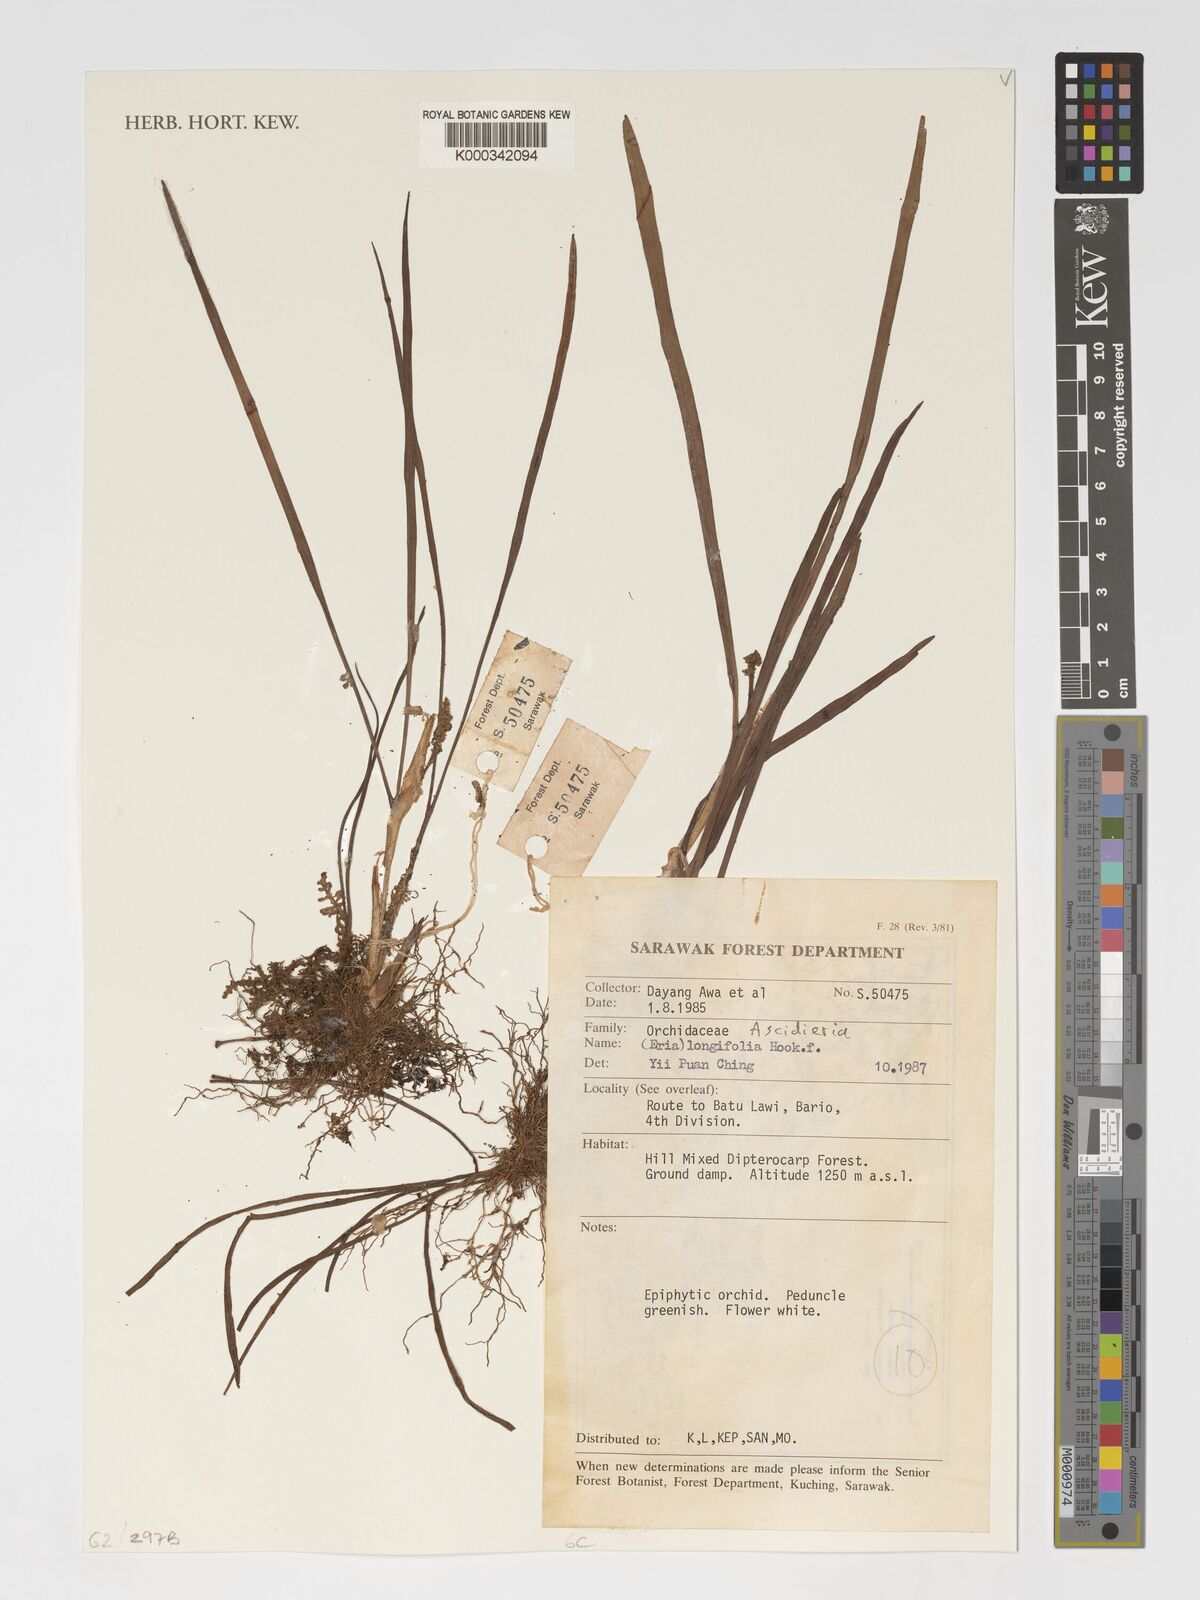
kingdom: Plantae
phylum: Tracheophyta
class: Liliopsida
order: Asparagales
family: Orchidaceae
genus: Ascidieria
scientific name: Ascidieria longifolia
